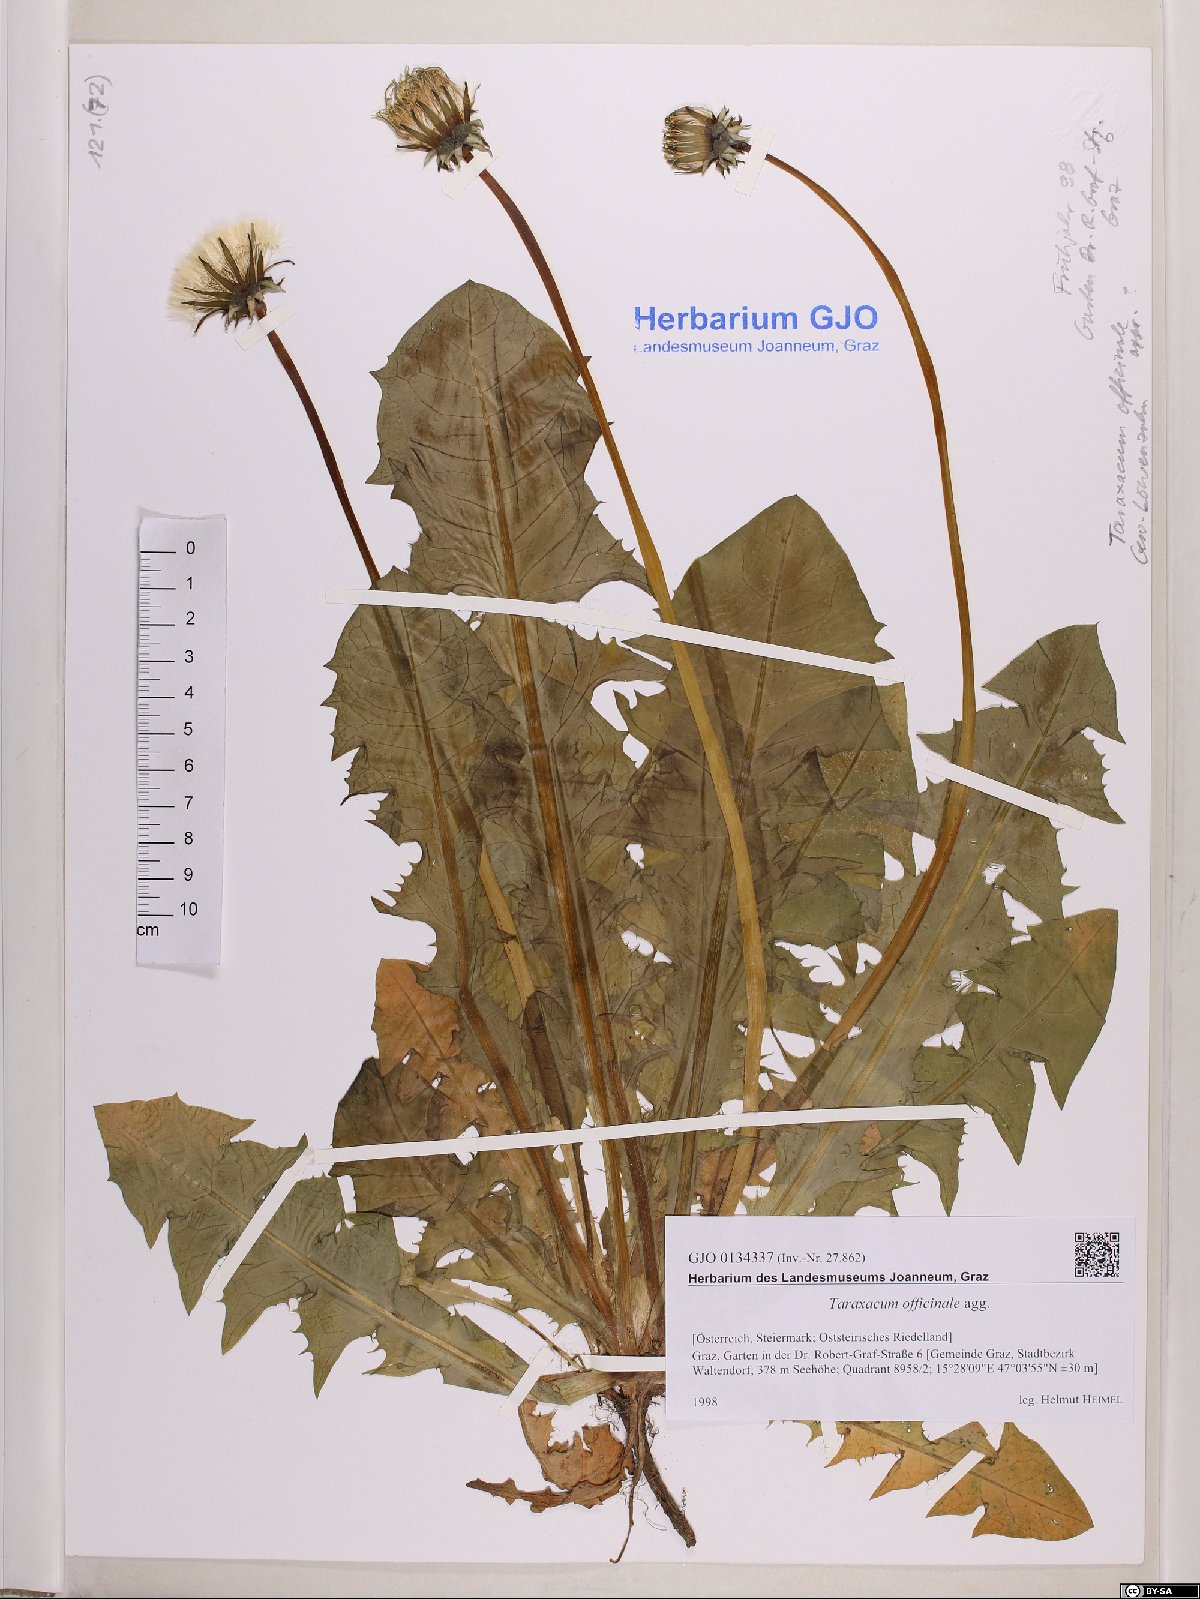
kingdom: Plantae
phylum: Tracheophyta
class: Magnoliopsida
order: Asterales
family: Asteraceae
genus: Taraxacum
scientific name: Taraxacum officinale
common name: Common dandelion
